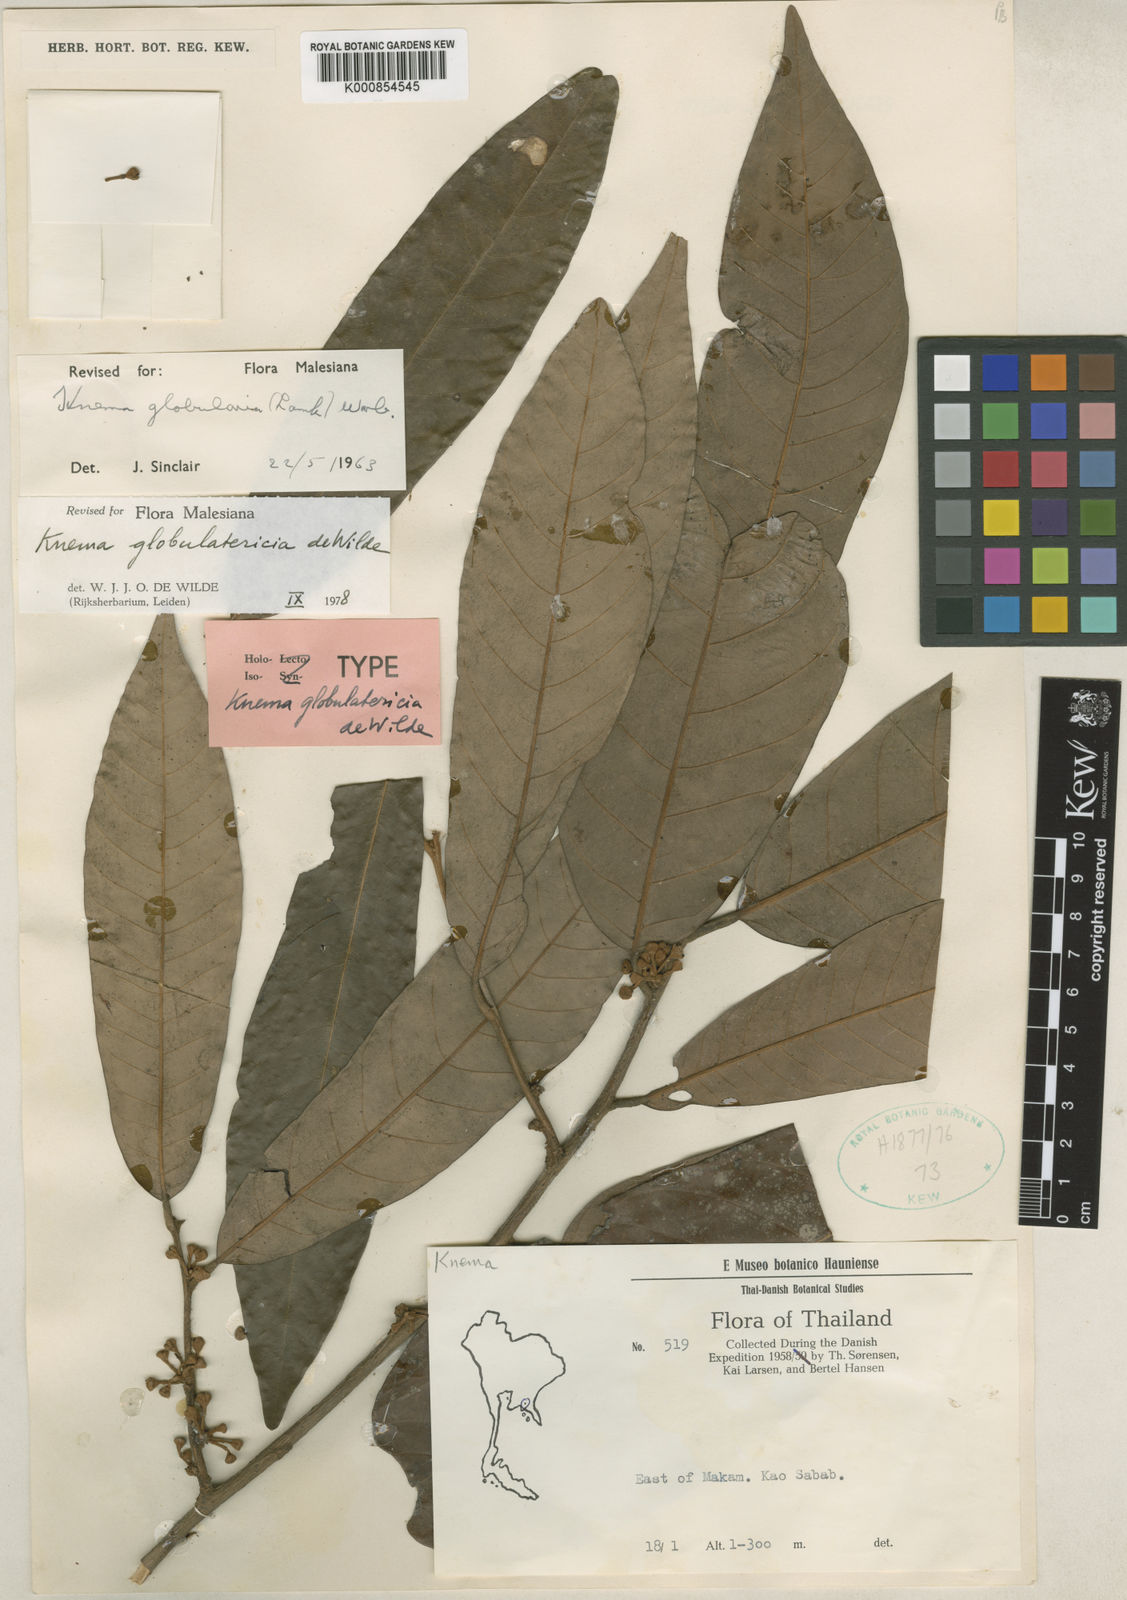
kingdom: Plantae
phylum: Tracheophyta
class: Magnoliopsida
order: Magnoliales
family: Myristicaceae
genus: Knema
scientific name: Knema globulatericia
